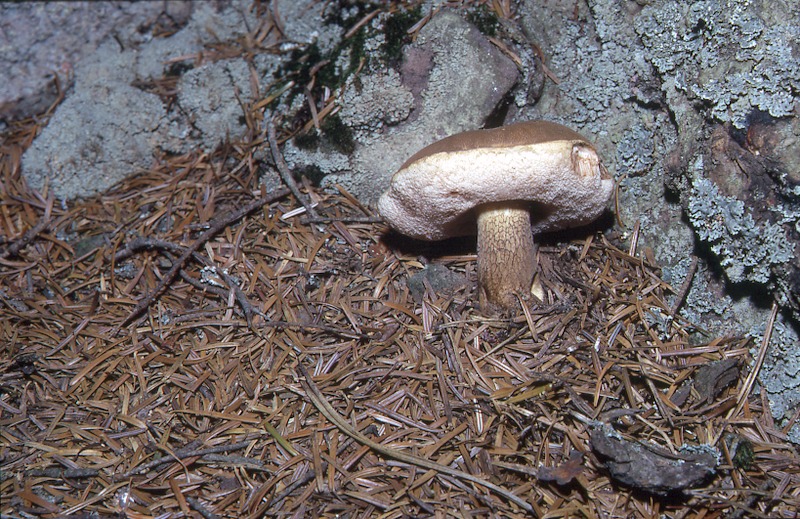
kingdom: Fungi
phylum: Basidiomycota
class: Agaricomycetes
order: Boletales
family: Boletaceae
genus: Tylopilus
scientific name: Tylopilus felleus
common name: Bitter bolete
